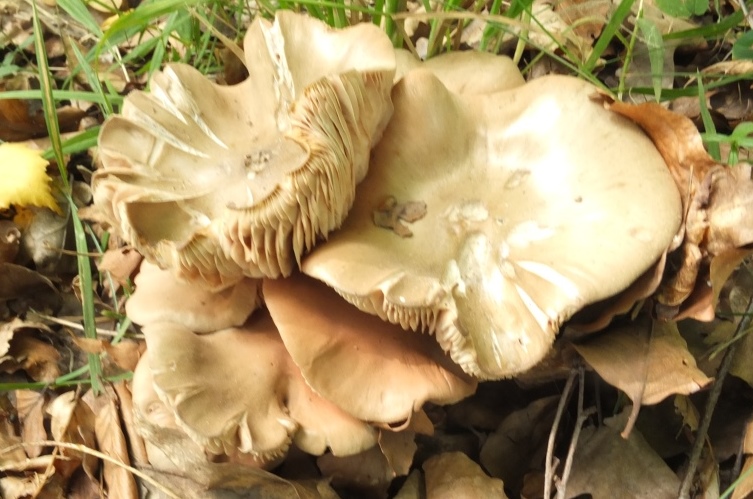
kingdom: Fungi
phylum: Basidiomycota
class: Agaricomycetes
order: Agaricales
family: Entolomataceae
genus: Entoloma
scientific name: Entoloma rhodopolium
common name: skov-rødblad
